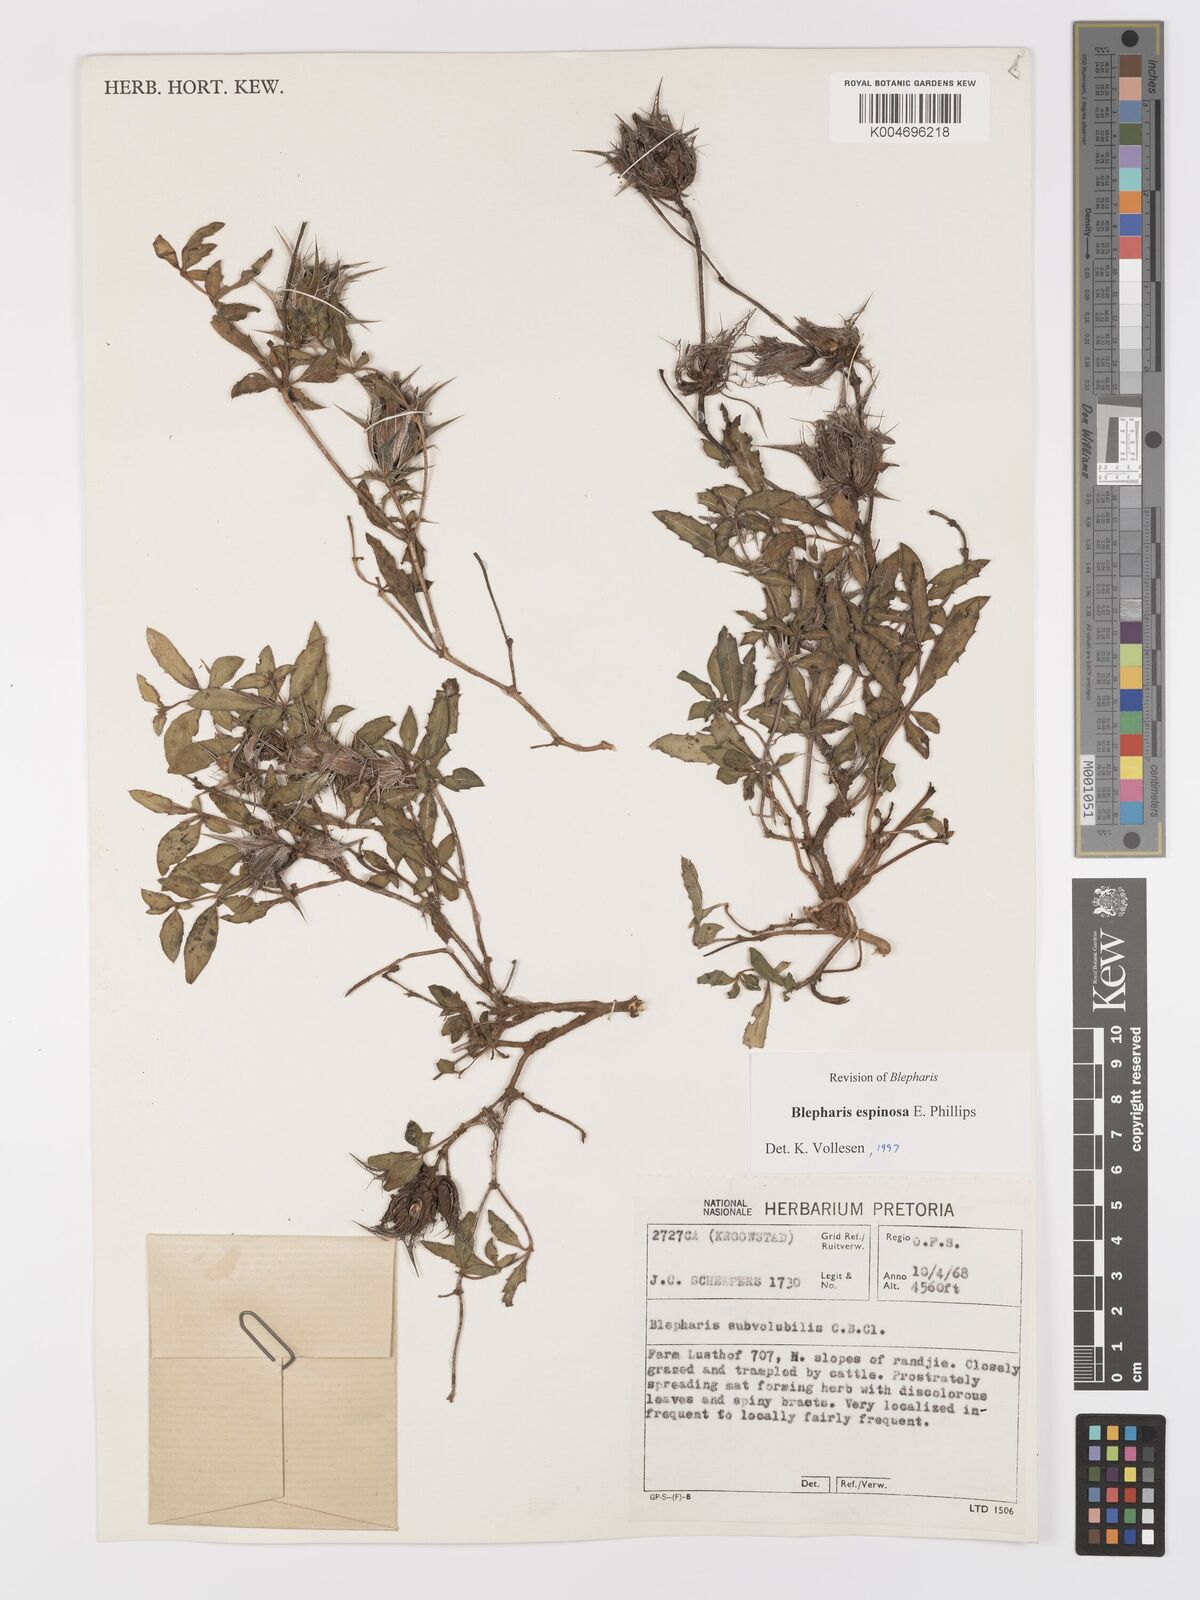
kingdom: Plantae
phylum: Tracheophyta
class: Magnoliopsida
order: Lamiales
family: Acanthaceae
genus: Blepharis
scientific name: Blepharis espinosa
